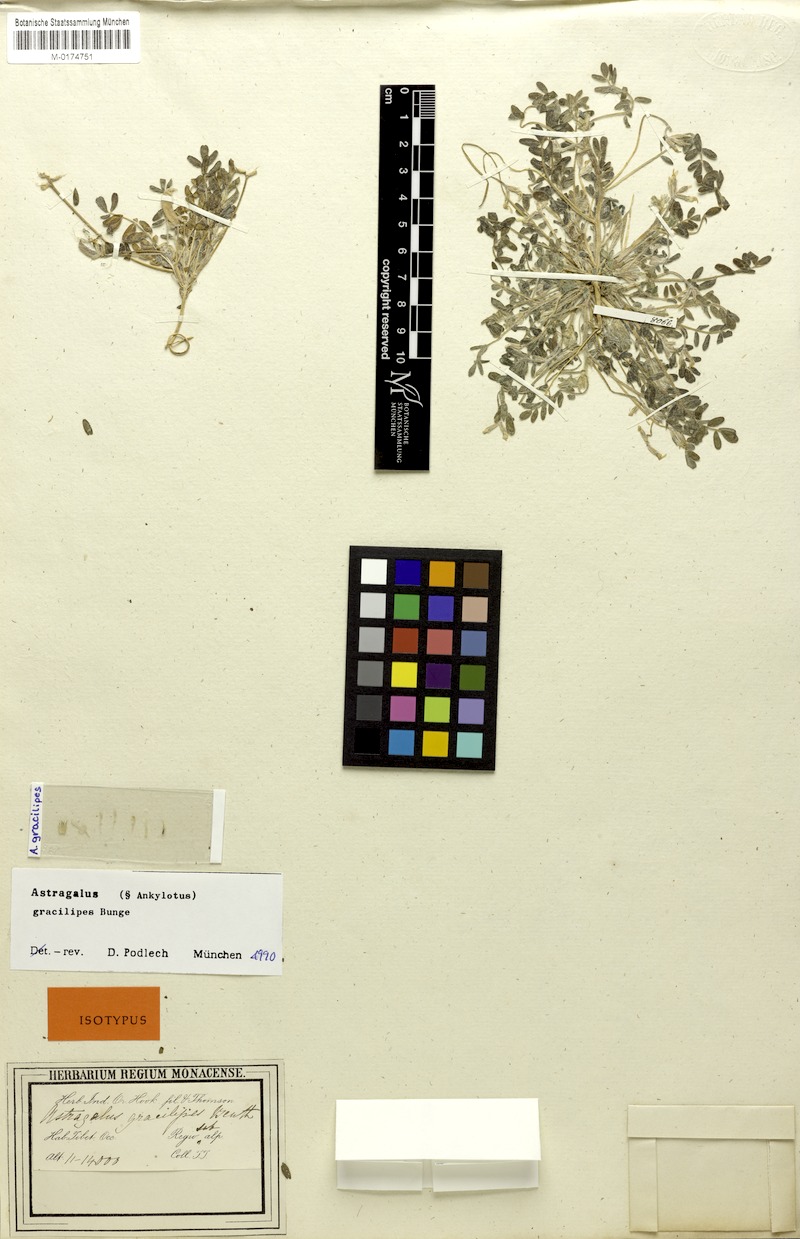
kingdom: Plantae
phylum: Tracheophyta
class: Magnoliopsida
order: Fabales
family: Fabaceae
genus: Astragalus
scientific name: Astragalus gracilipes
